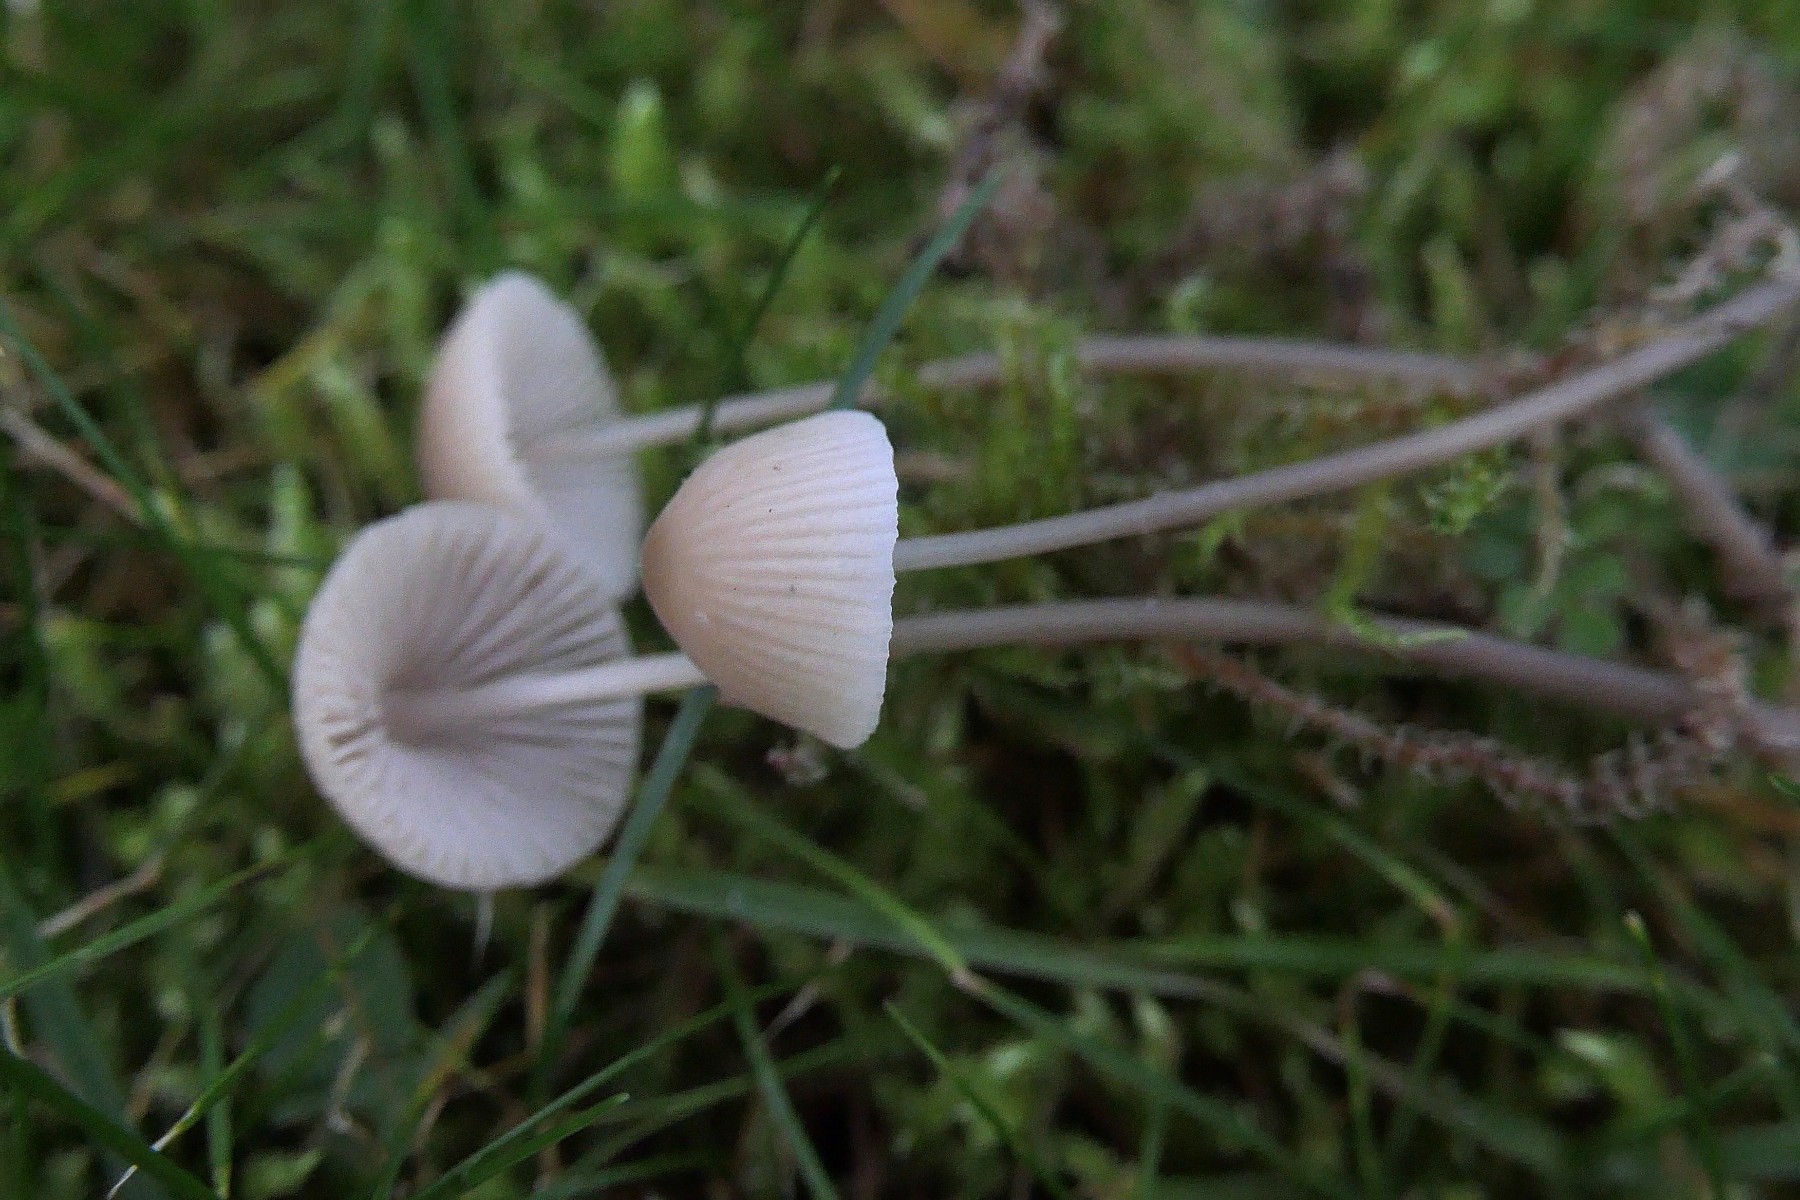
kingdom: Fungi
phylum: Basidiomycota
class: Agaricomycetes
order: Agaricales
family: Mycenaceae
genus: Mycena
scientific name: Mycena metata
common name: rødlig huesvamp
